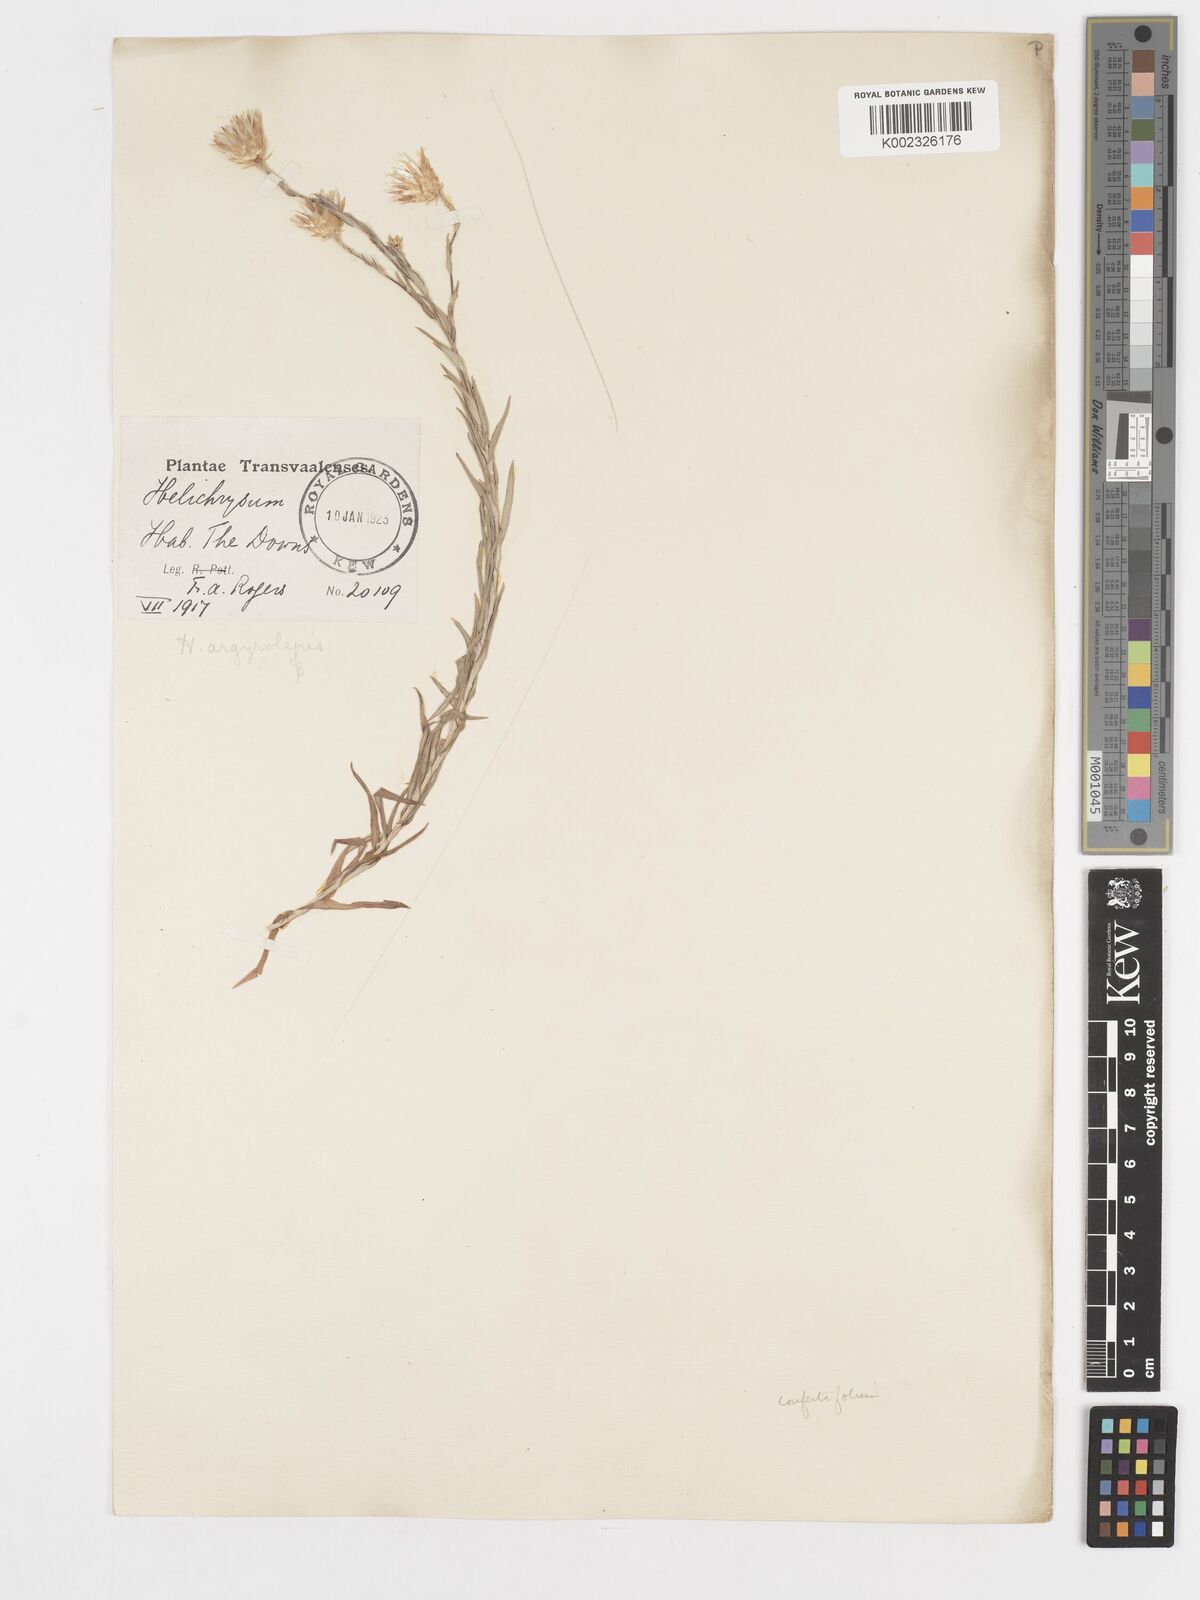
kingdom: Plantae
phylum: Tracheophyta
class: Magnoliopsida
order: Asterales
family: Asteraceae
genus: Helichrysum
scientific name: Helichrysum confertifolium
